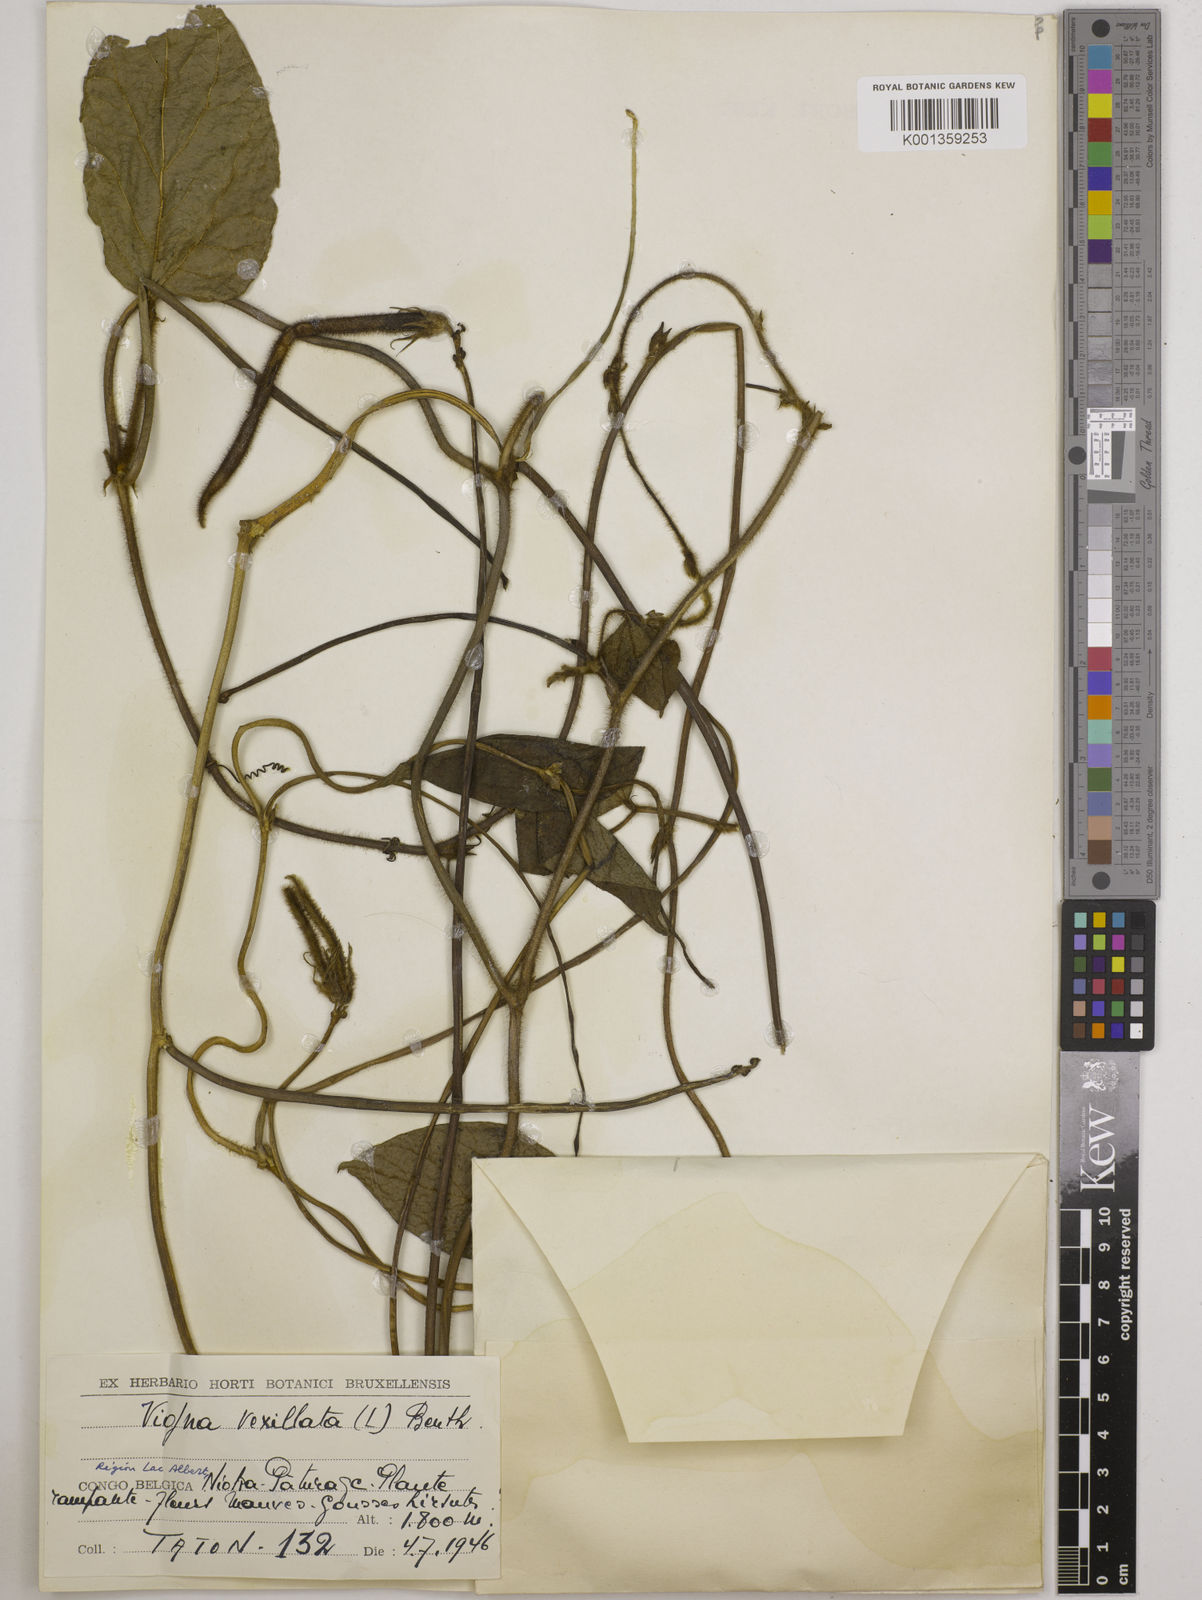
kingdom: Plantae
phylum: Tracheophyta
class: Magnoliopsida
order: Fabales
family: Fabaceae
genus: Vigna
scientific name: Vigna vexillata
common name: Zombi pea
